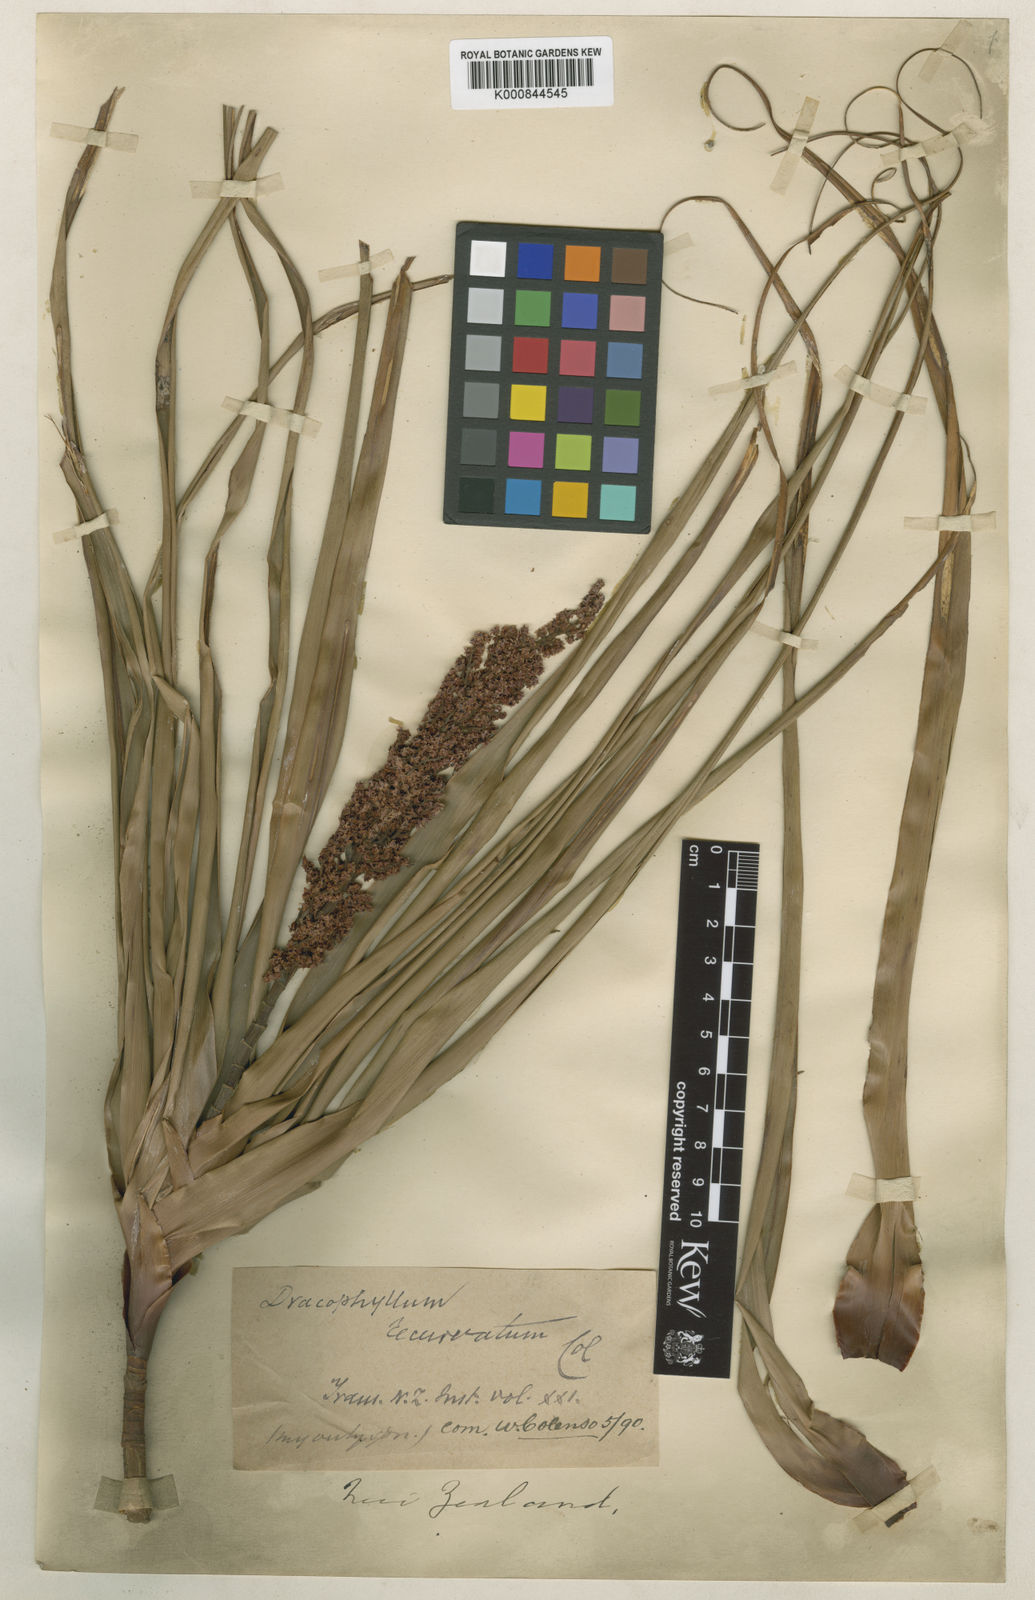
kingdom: Plantae
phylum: Tracheophyta
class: Magnoliopsida
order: Ericales
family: Ericaceae
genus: Dracophyllum
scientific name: Dracophyllum latifolium
